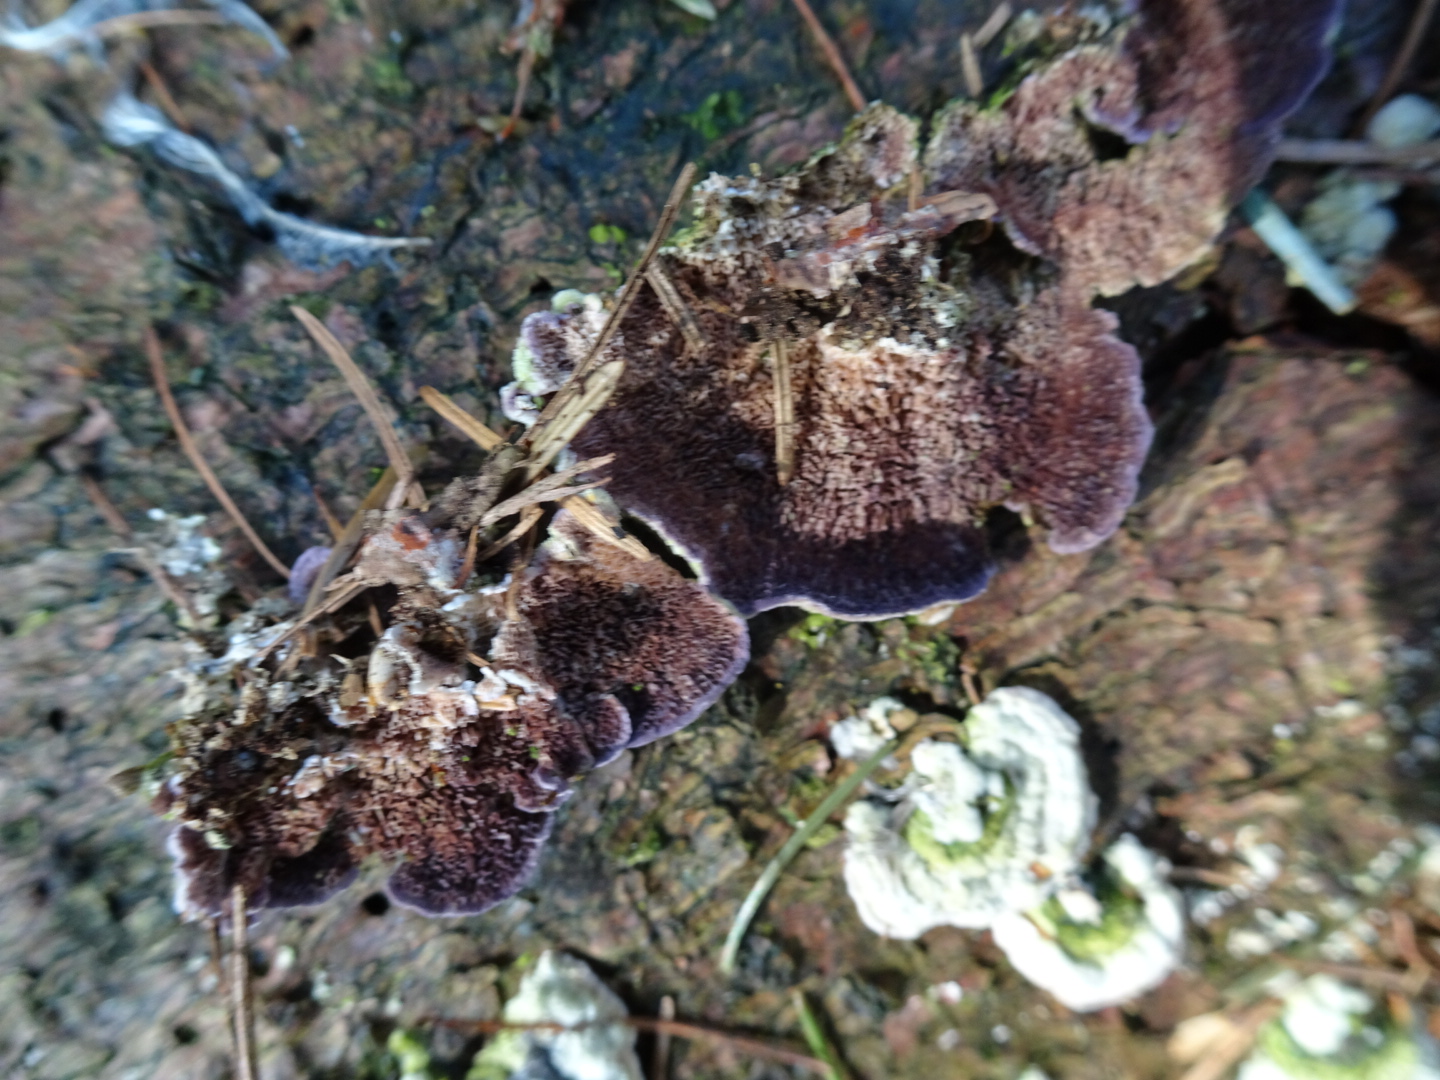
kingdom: Fungi
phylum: Basidiomycota
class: Agaricomycetes
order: Hymenochaetales
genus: Trichaptum
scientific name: Trichaptum abietinum
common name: almindelig violporesvamp
